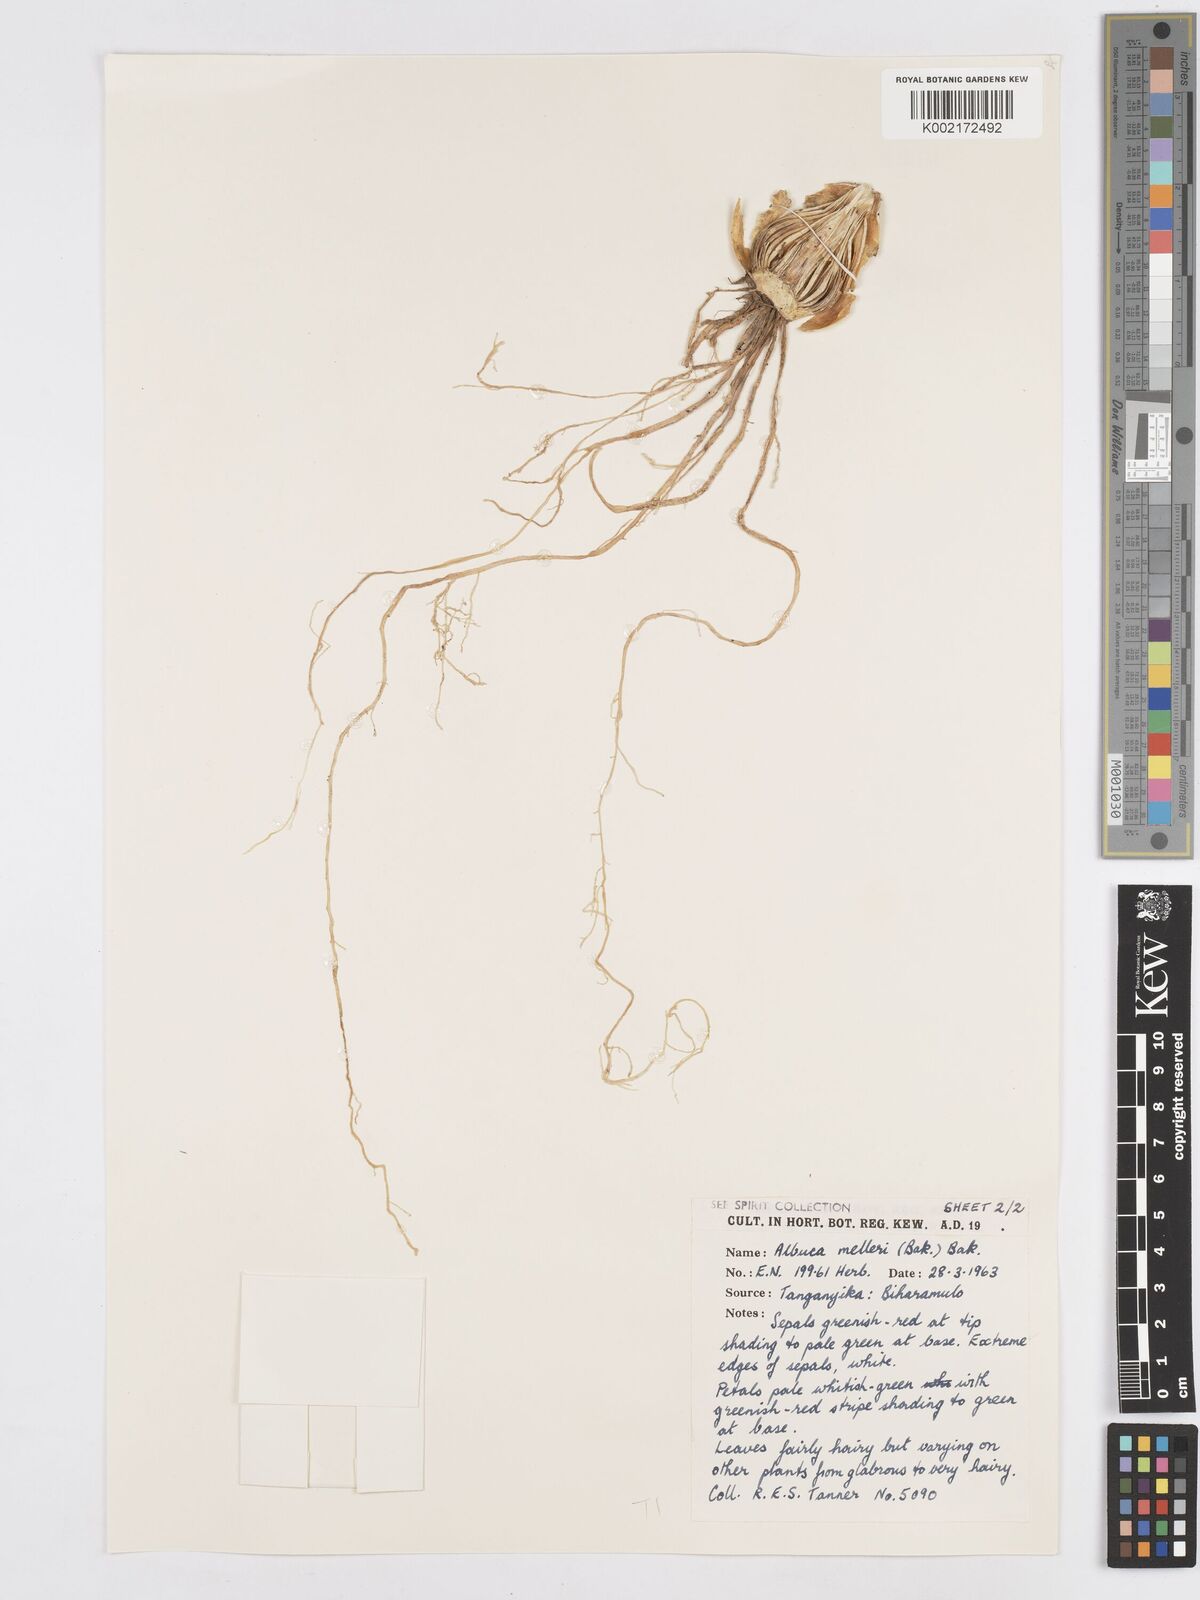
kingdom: Plantae
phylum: Tracheophyta
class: Liliopsida
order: Asparagales
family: Asparagaceae
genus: Albuca
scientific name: Albuca abyssinica
